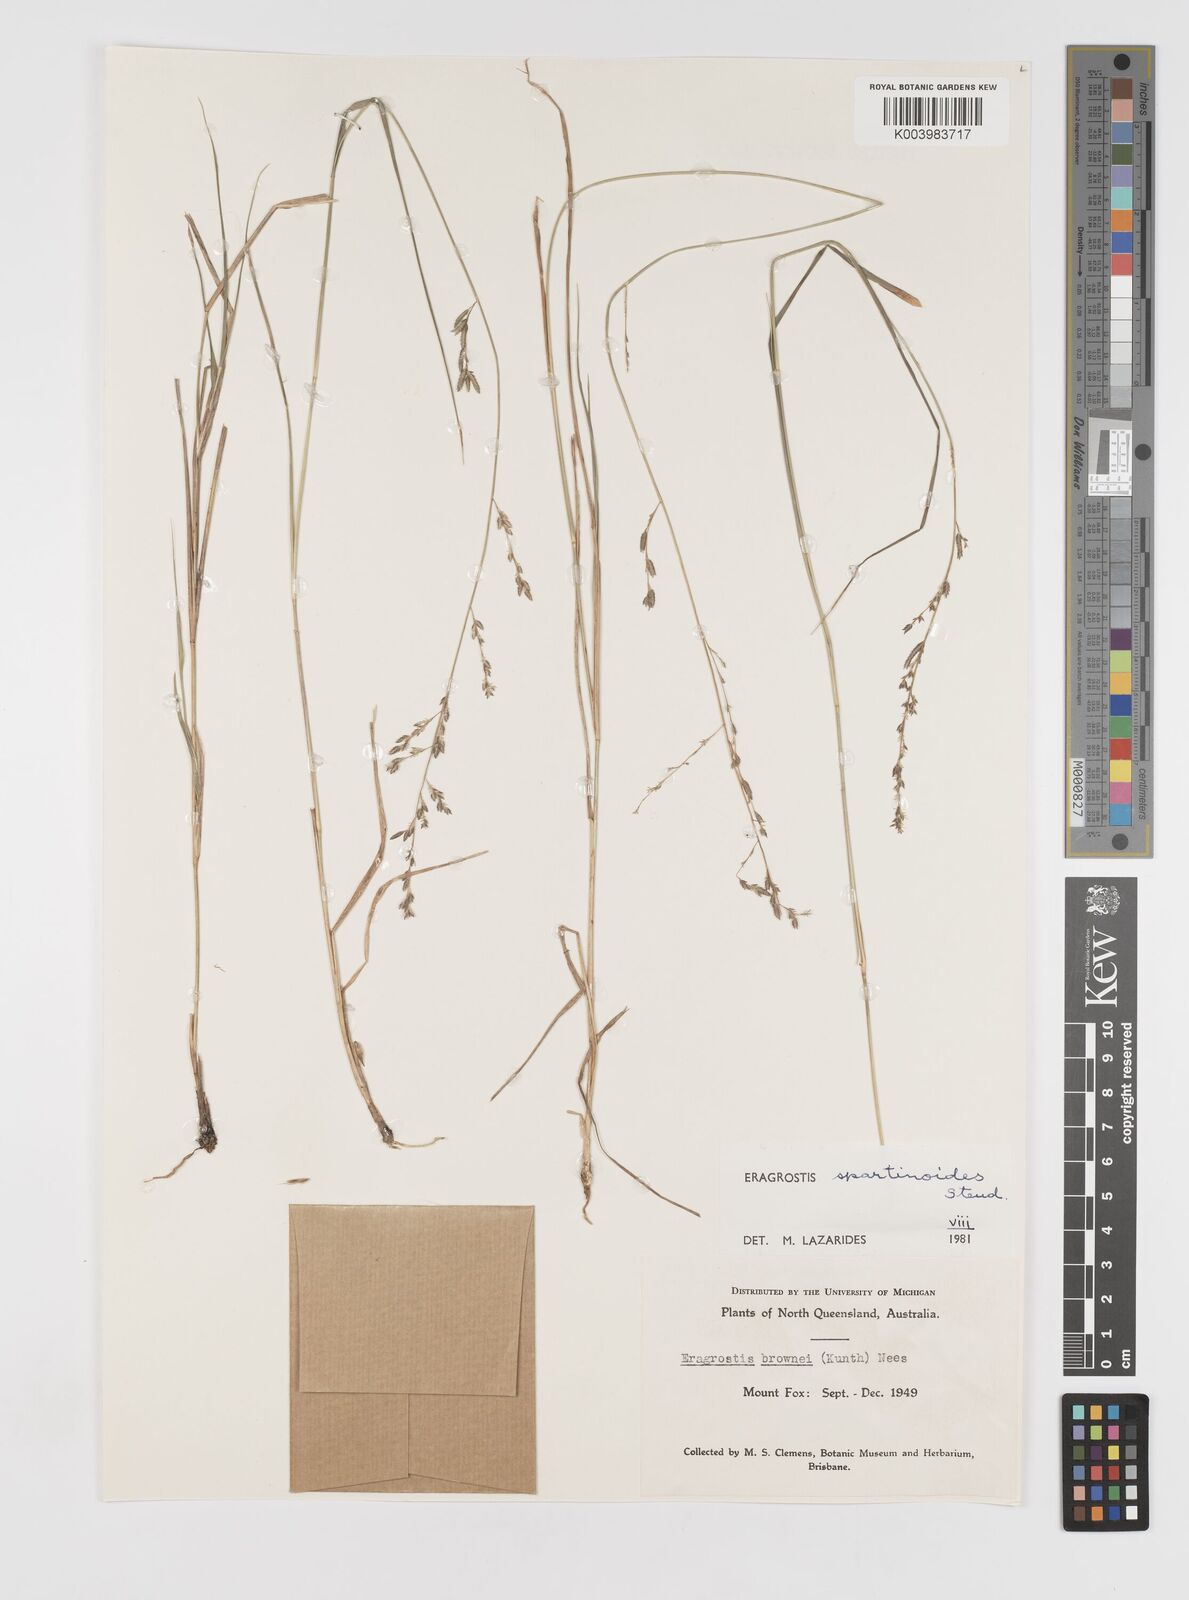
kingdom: Plantae
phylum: Tracheophyta
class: Liliopsida
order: Poales
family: Poaceae
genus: Eragrostis
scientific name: Eragrostis brownii
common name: Lovegrass
